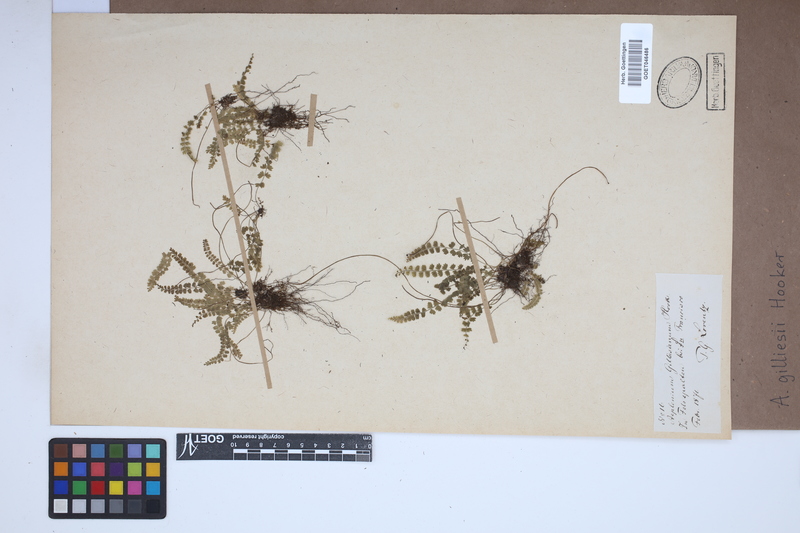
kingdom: Plantae
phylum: Tracheophyta
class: Polypodiopsida
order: Polypodiales
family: Aspleniaceae
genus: Asplenium
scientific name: Asplenium gilliesii
